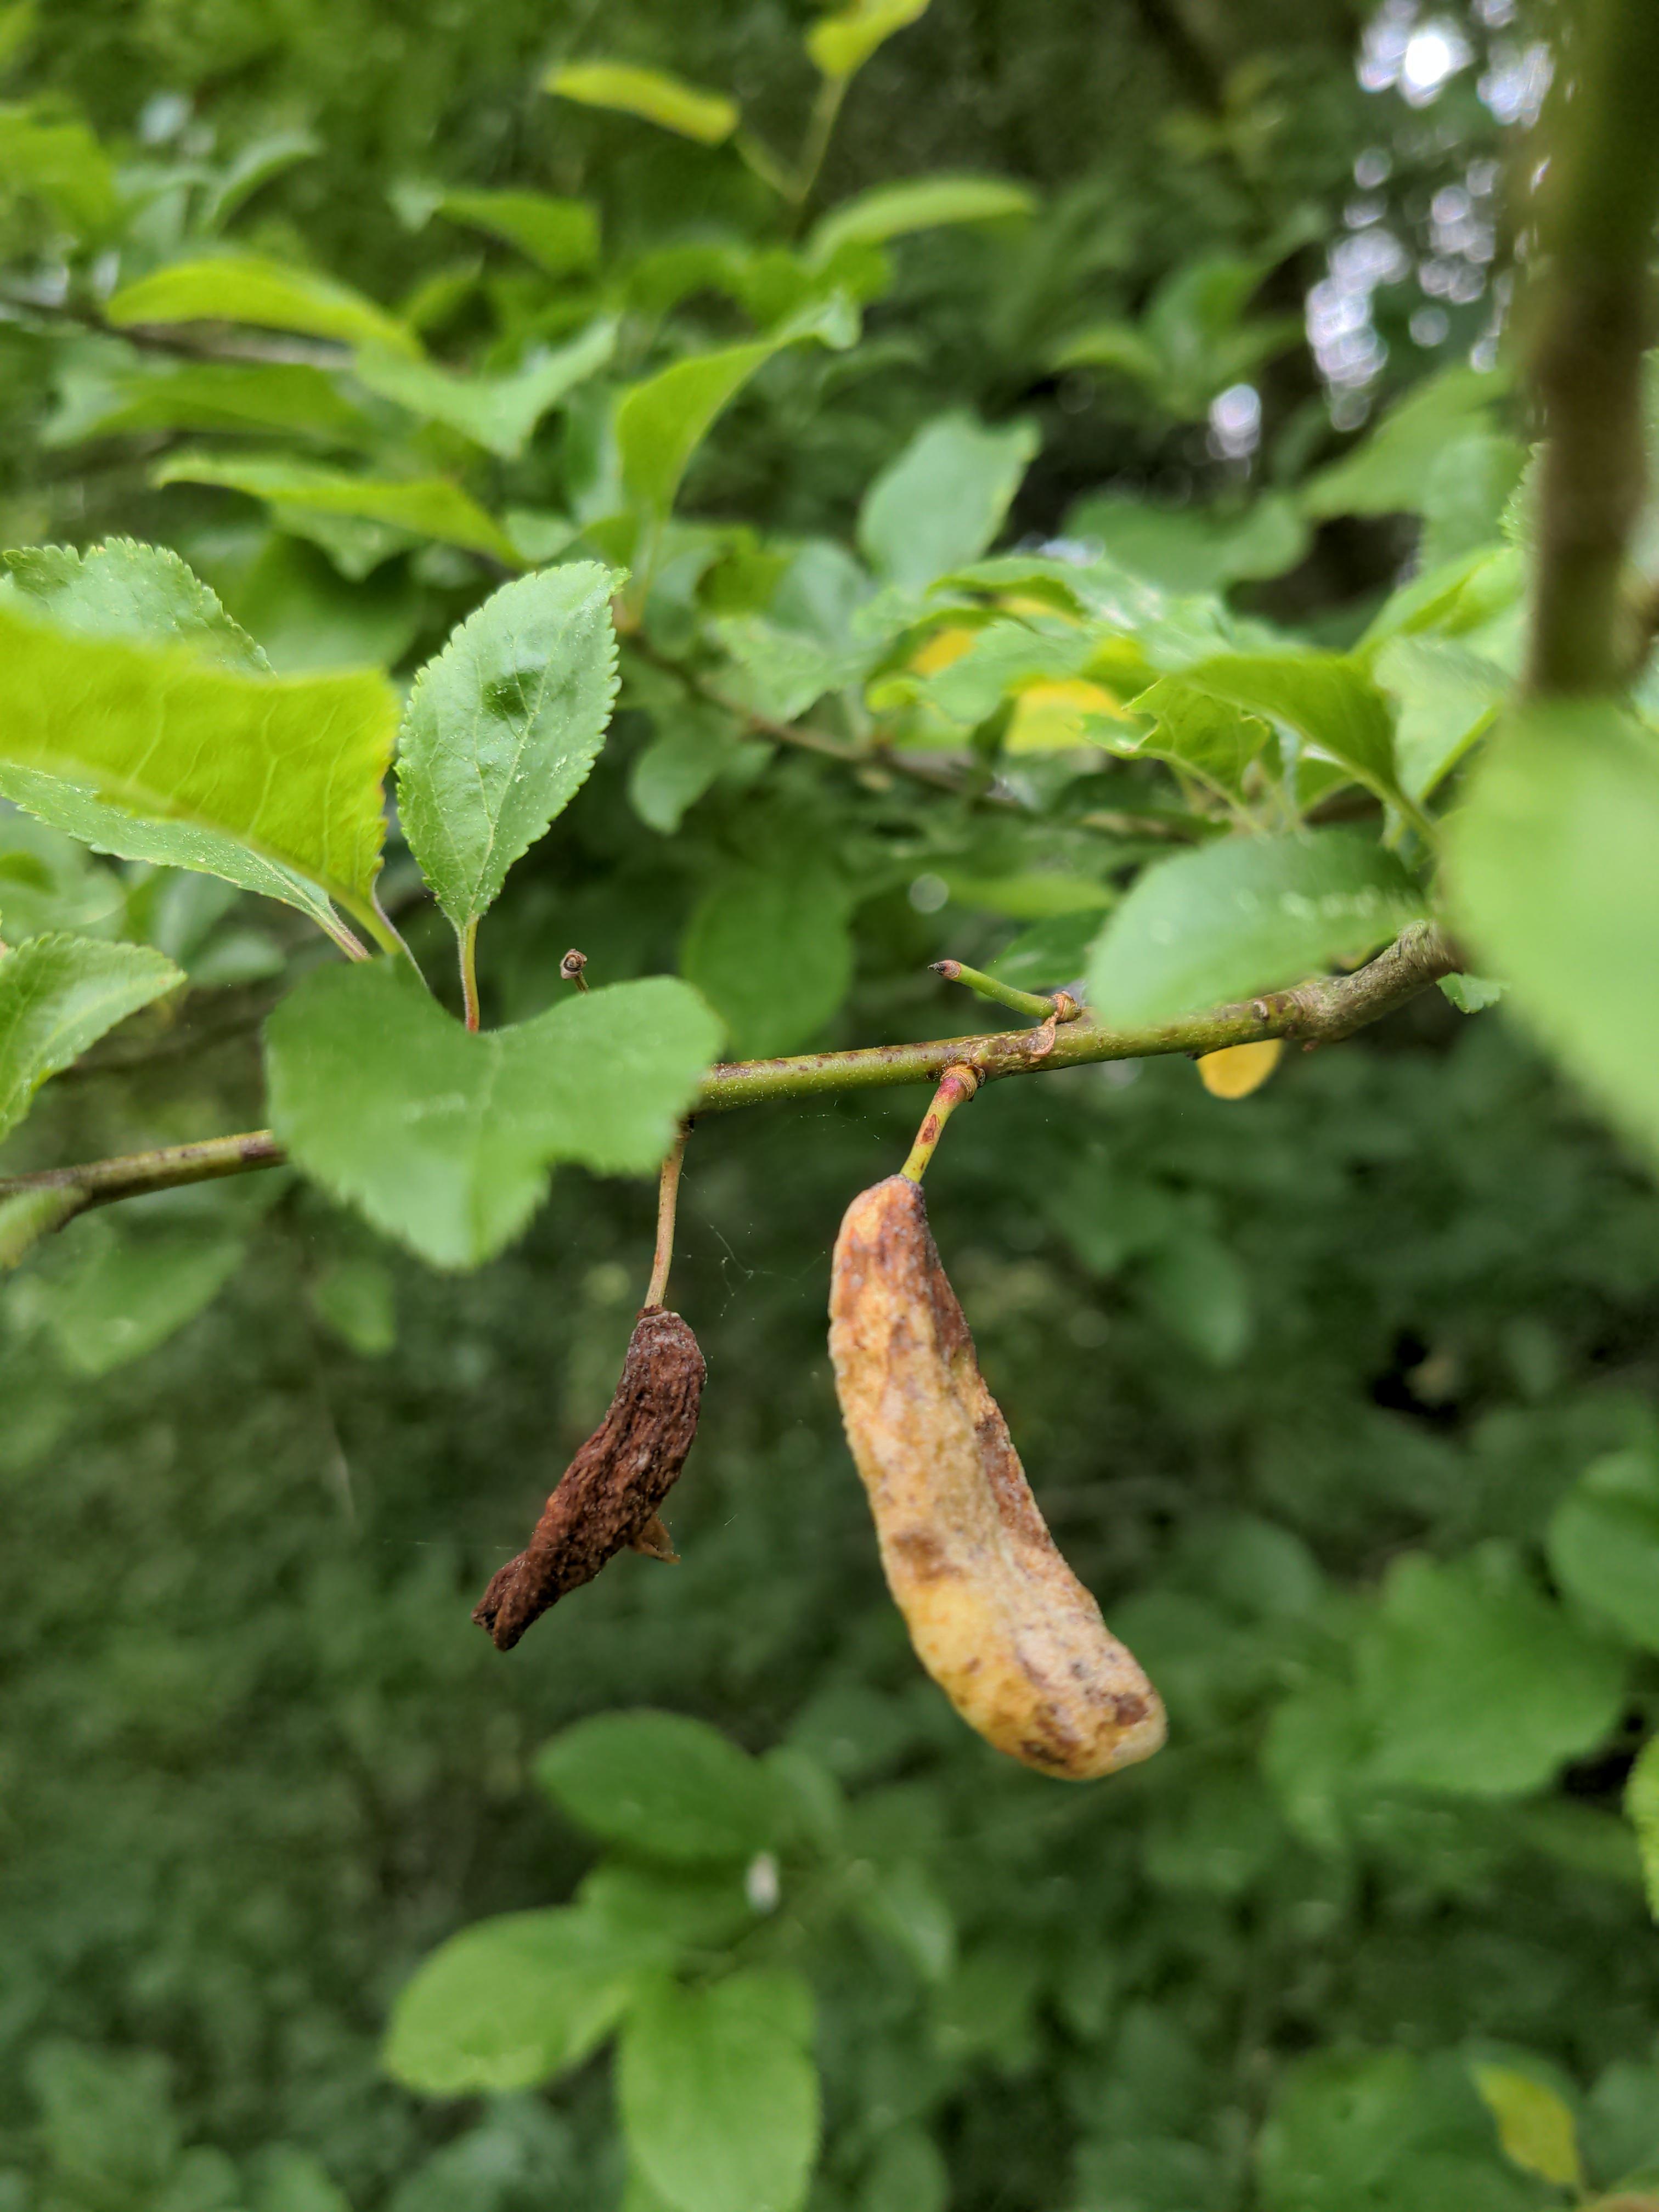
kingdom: Fungi
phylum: Ascomycota
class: Taphrinomycetes
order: Taphrinales
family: Taphrinaceae
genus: Taphrina
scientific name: Taphrina pruni
